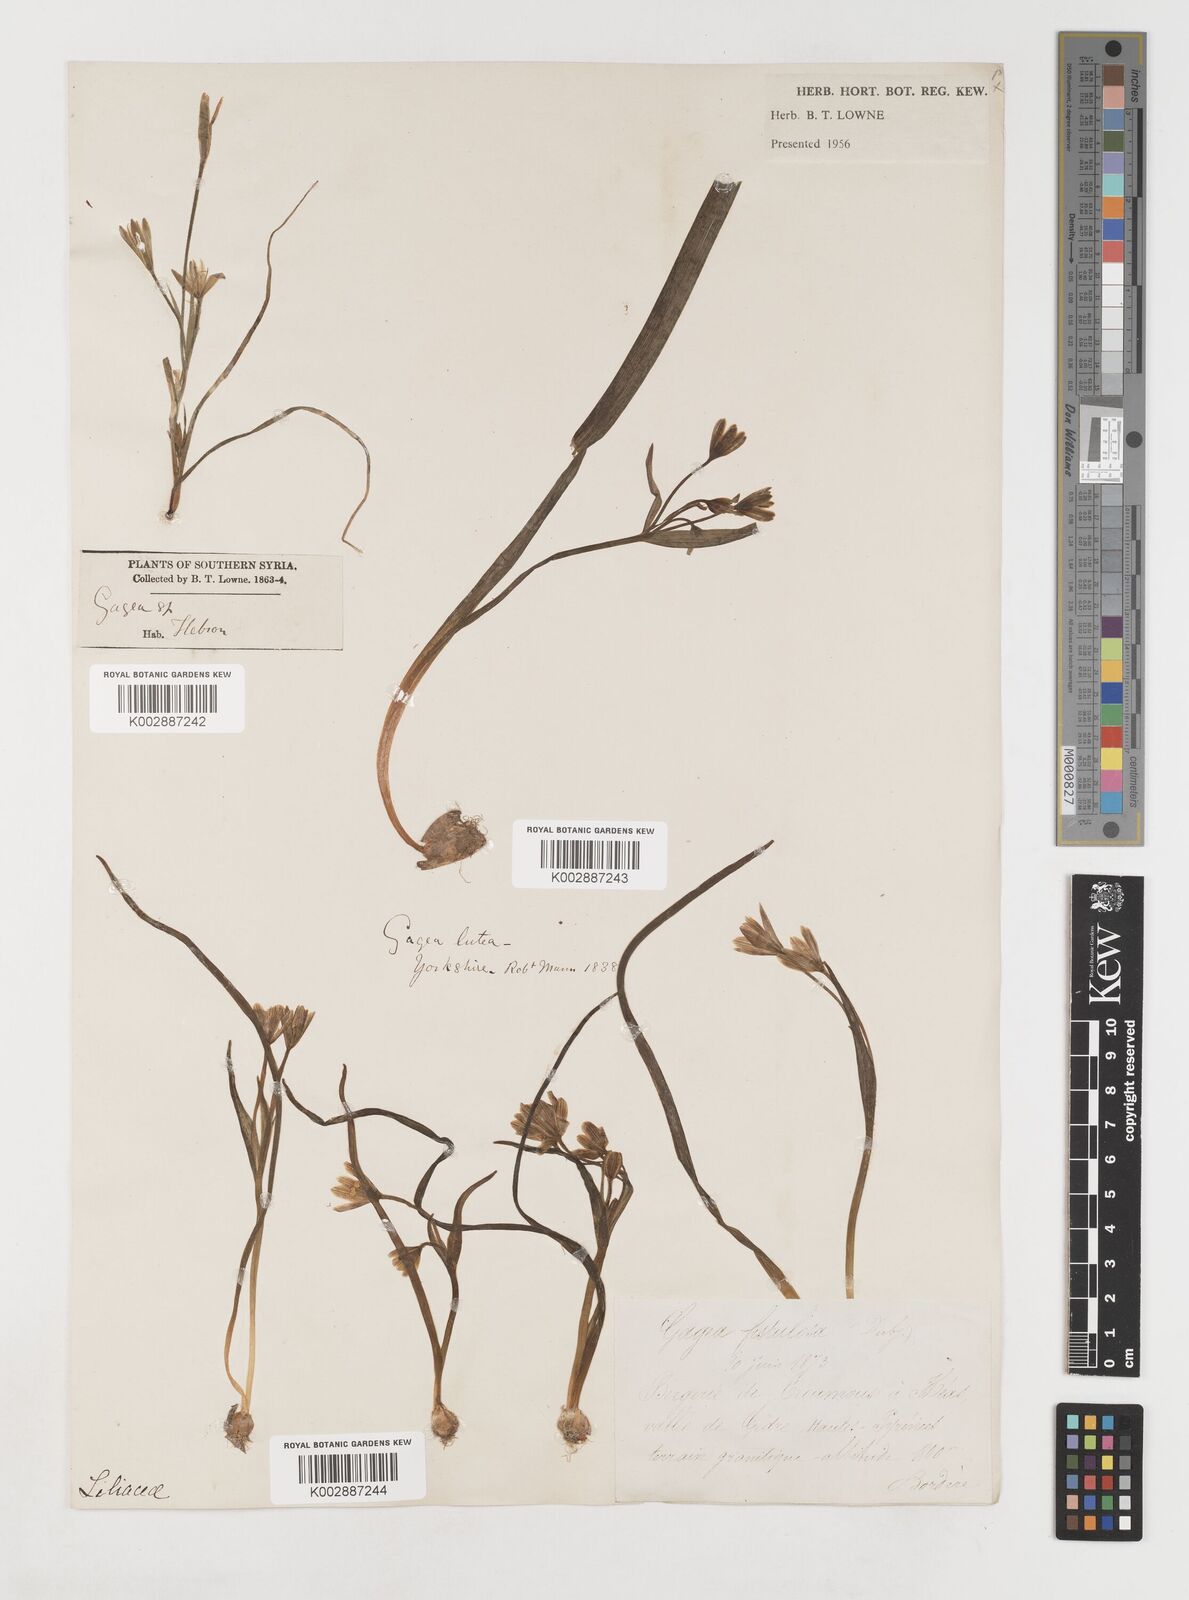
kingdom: Plantae
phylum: Tracheophyta
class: Liliopsida
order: Liliales
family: Liliaceae
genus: Gagea
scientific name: Gagea bohemica
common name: Early star-of-bethlehem
